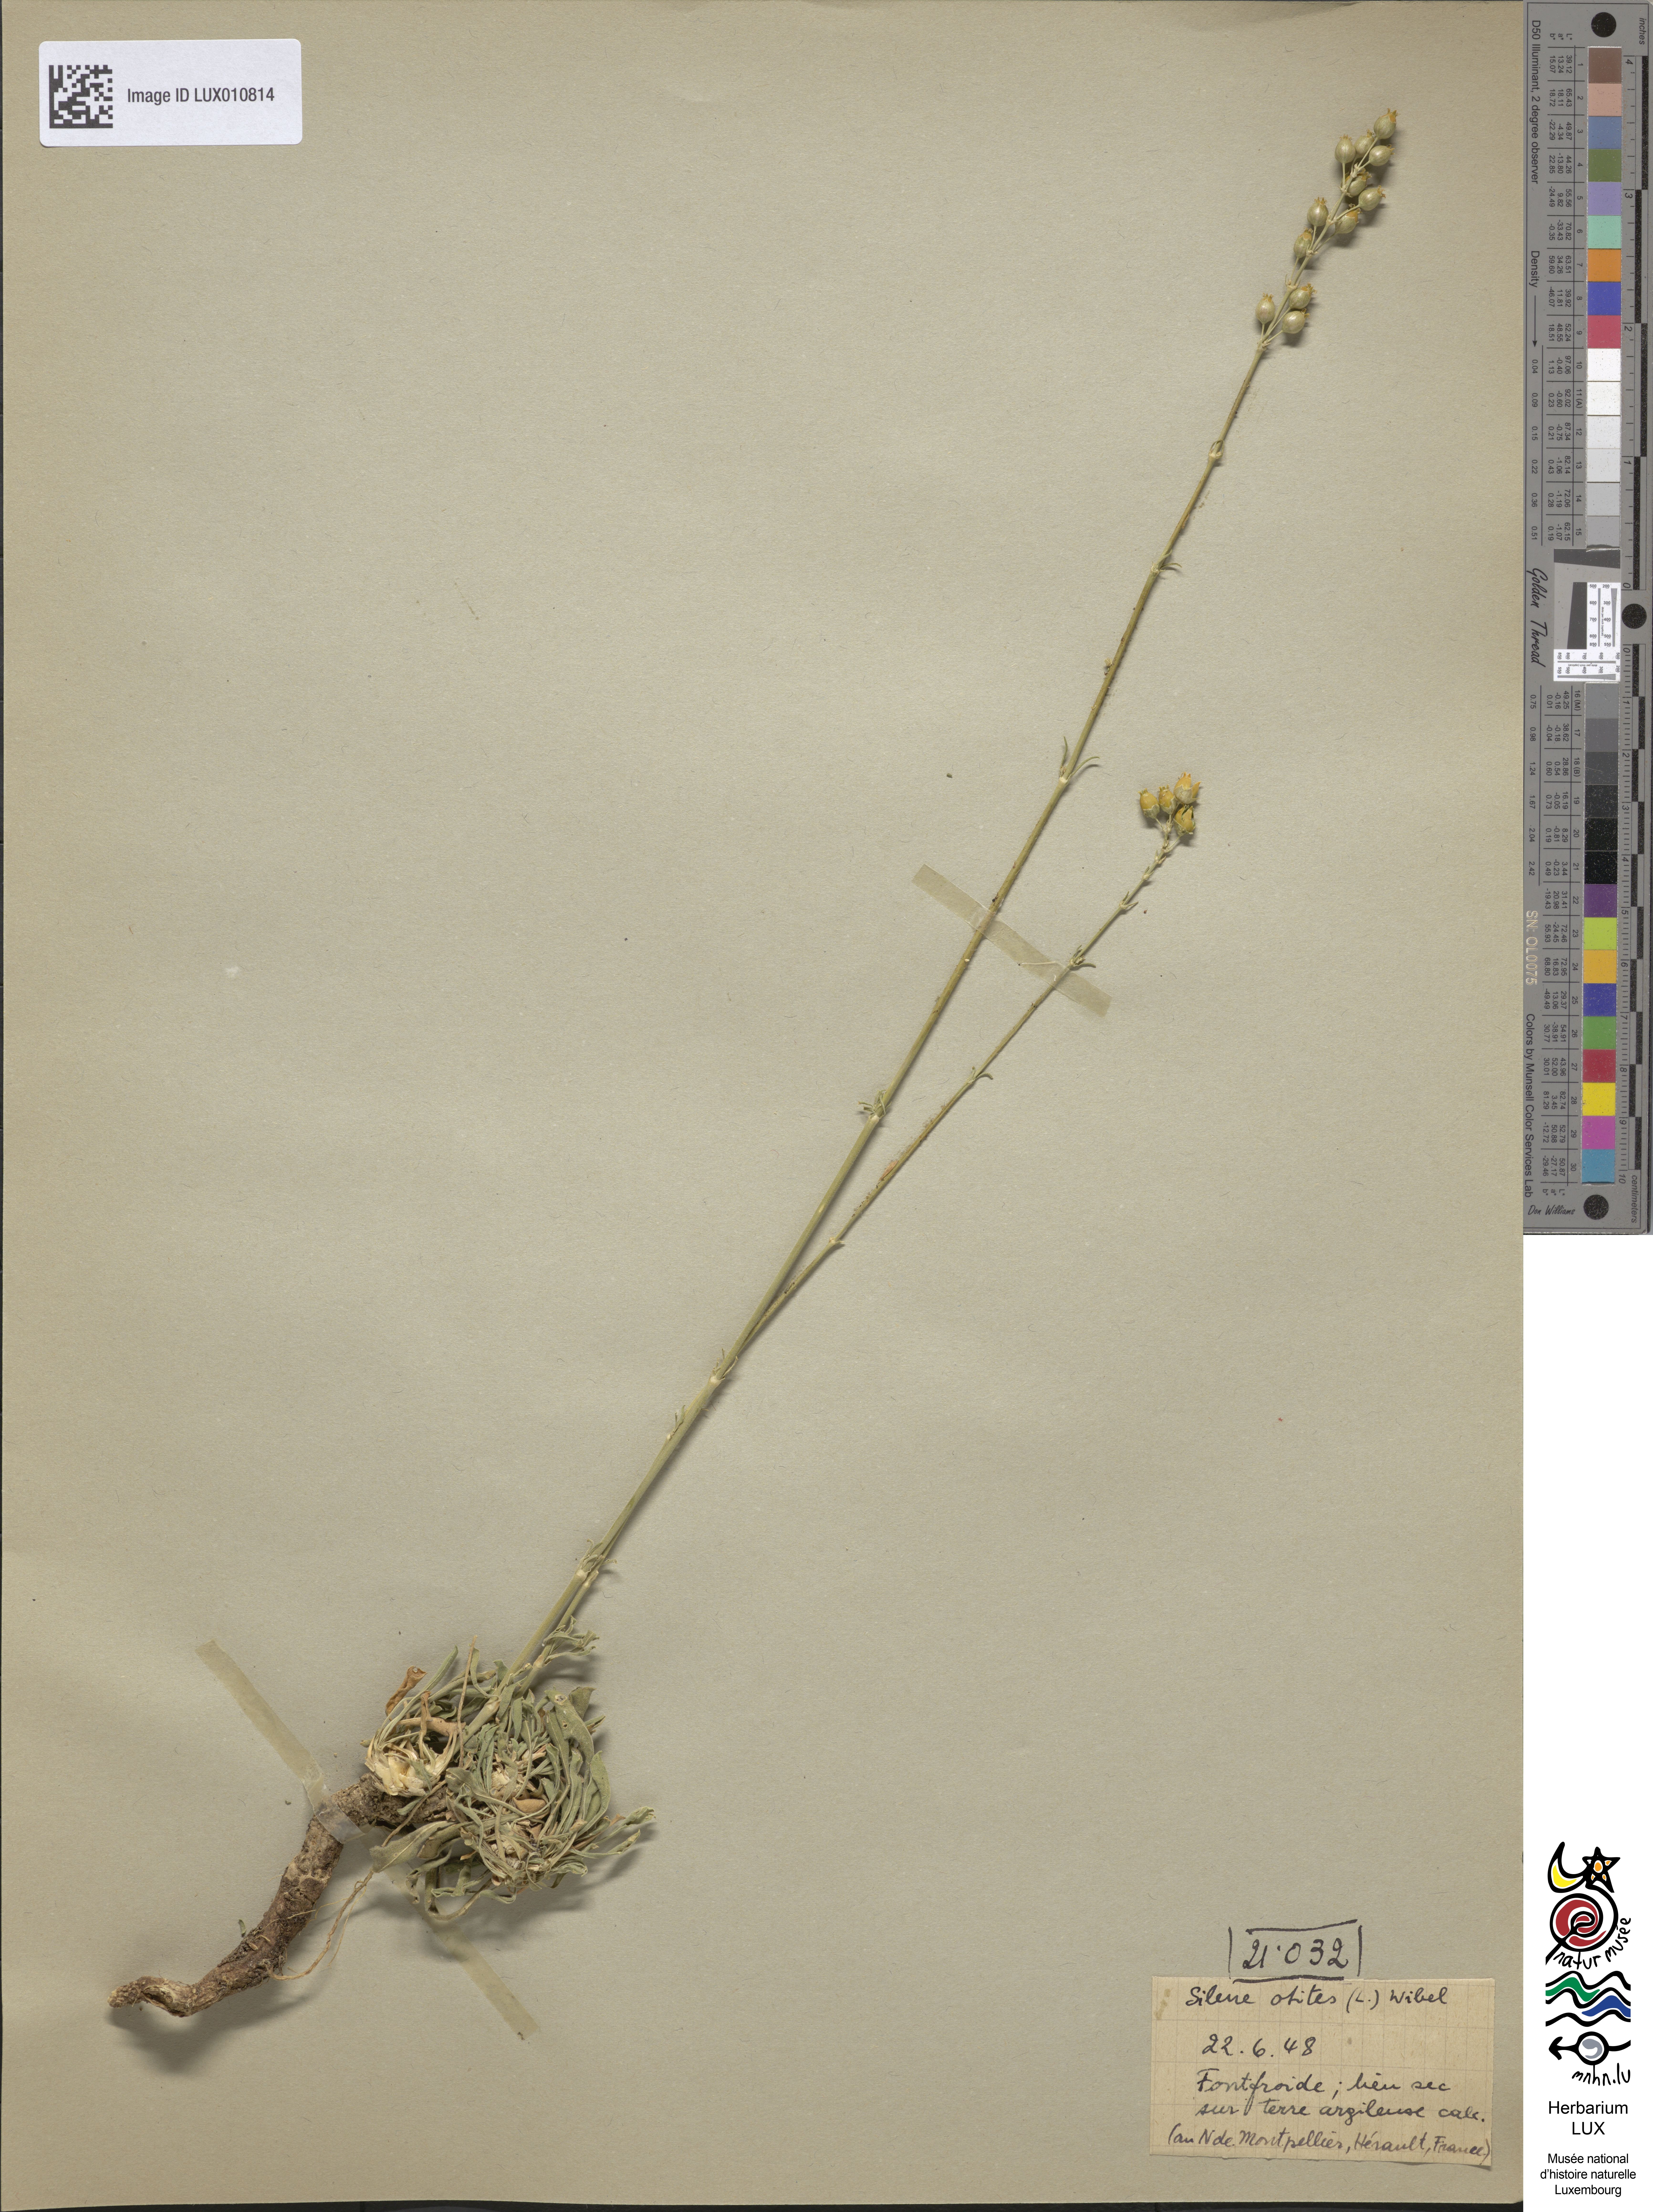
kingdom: Plantae
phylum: Tracheophyta
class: Magnoliopsida
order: Caryophyllales
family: Caryophyllaceae
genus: Silene
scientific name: Silene otites
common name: Spanish catchfly
